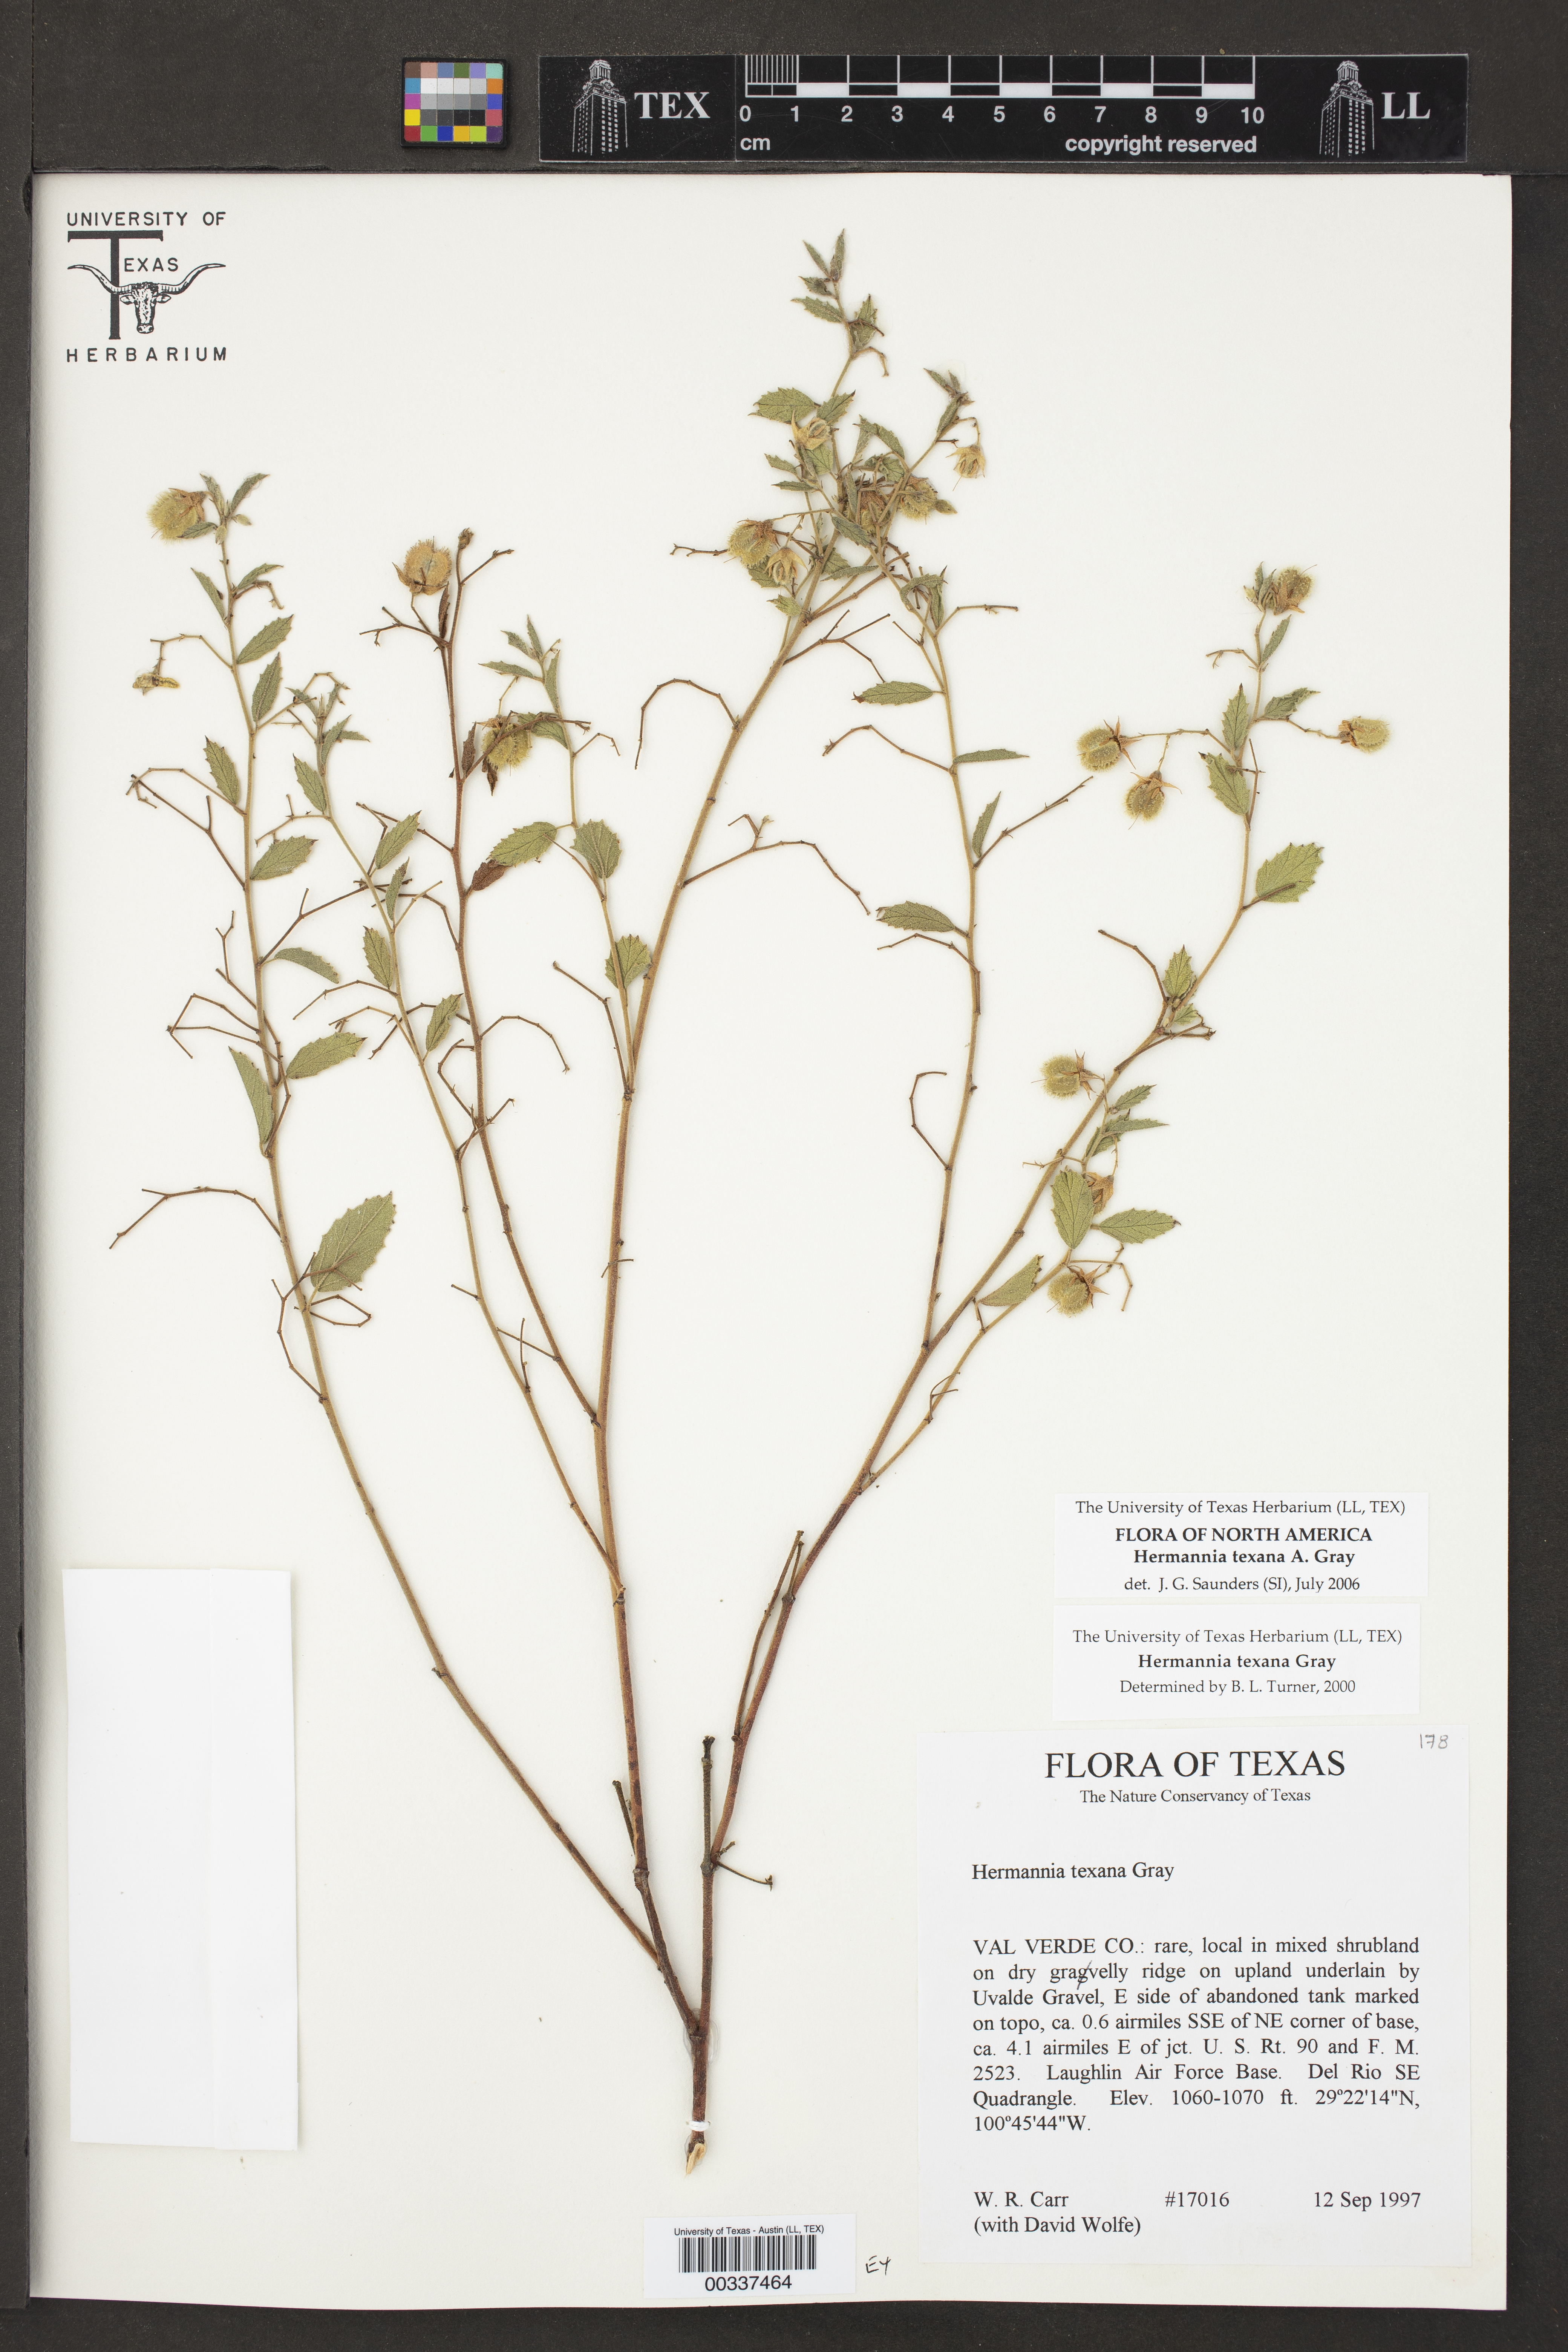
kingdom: Plantae
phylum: Tracheophyta
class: Magnoliopsida
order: Malvales
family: Malvaceae
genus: Hermannia
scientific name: Hermannia texana
